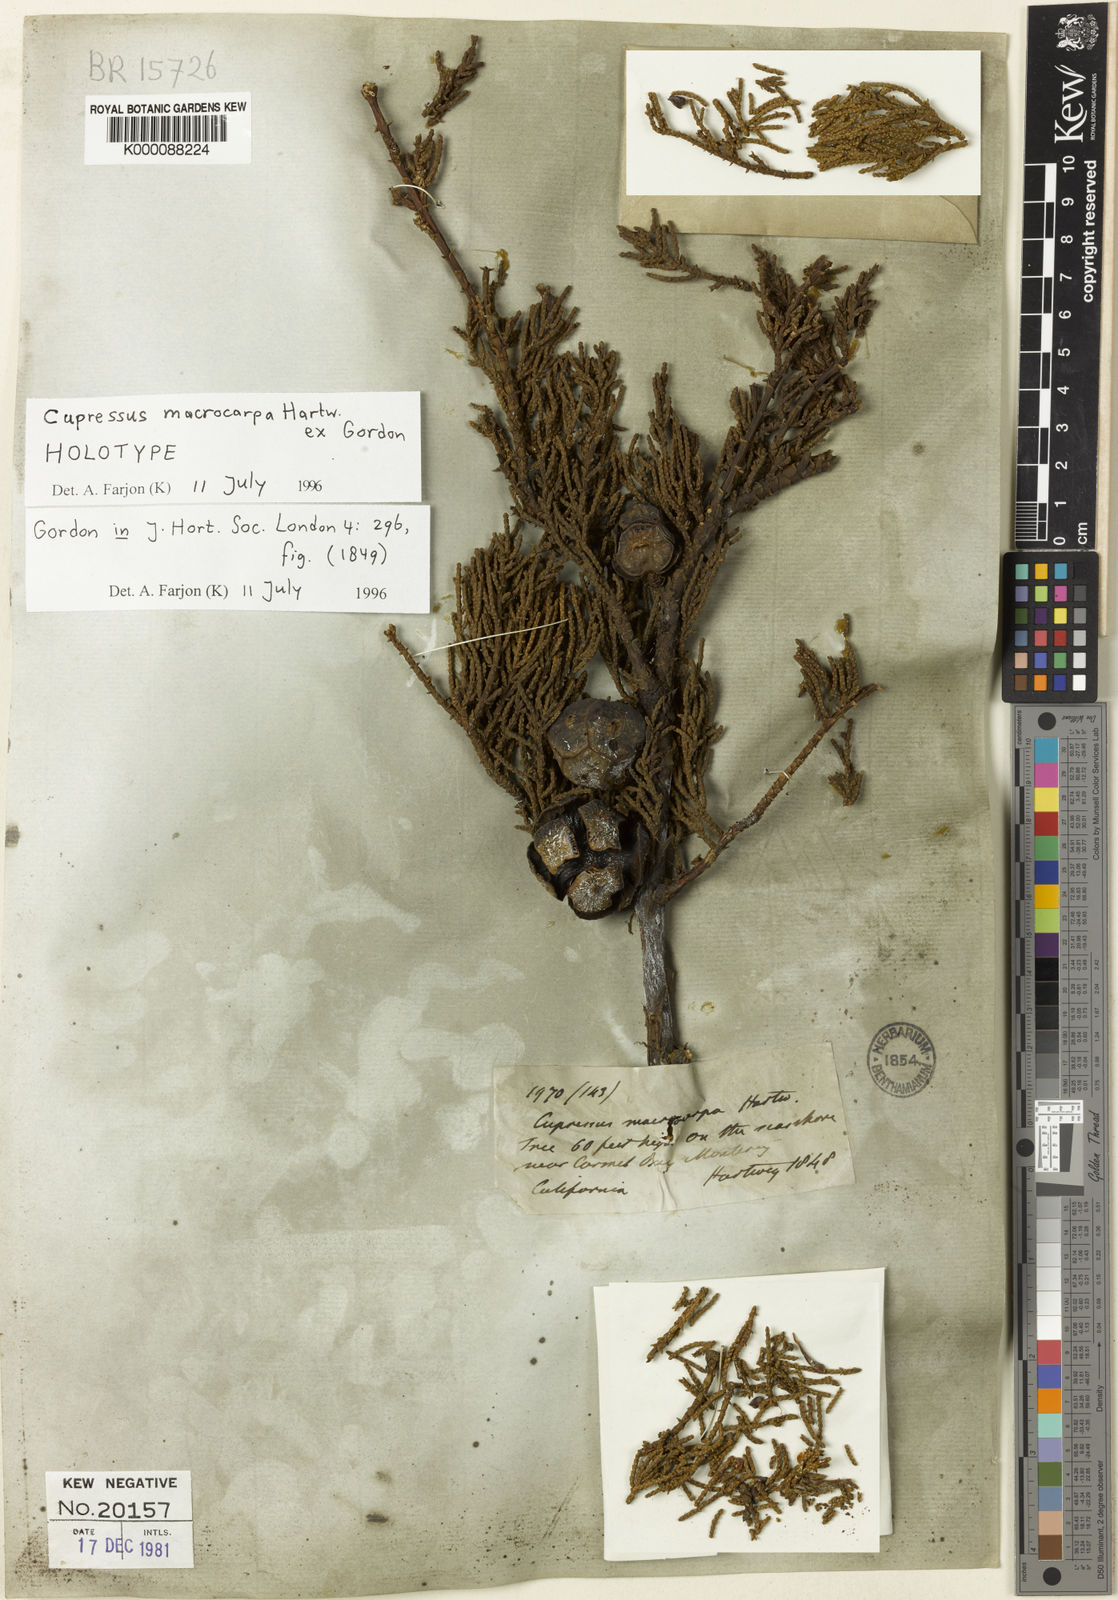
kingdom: Plantae
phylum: Tracheophyta
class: Pinopsida
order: Pinales
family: Cupressaceae
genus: Cupressus
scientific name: Cupressus
